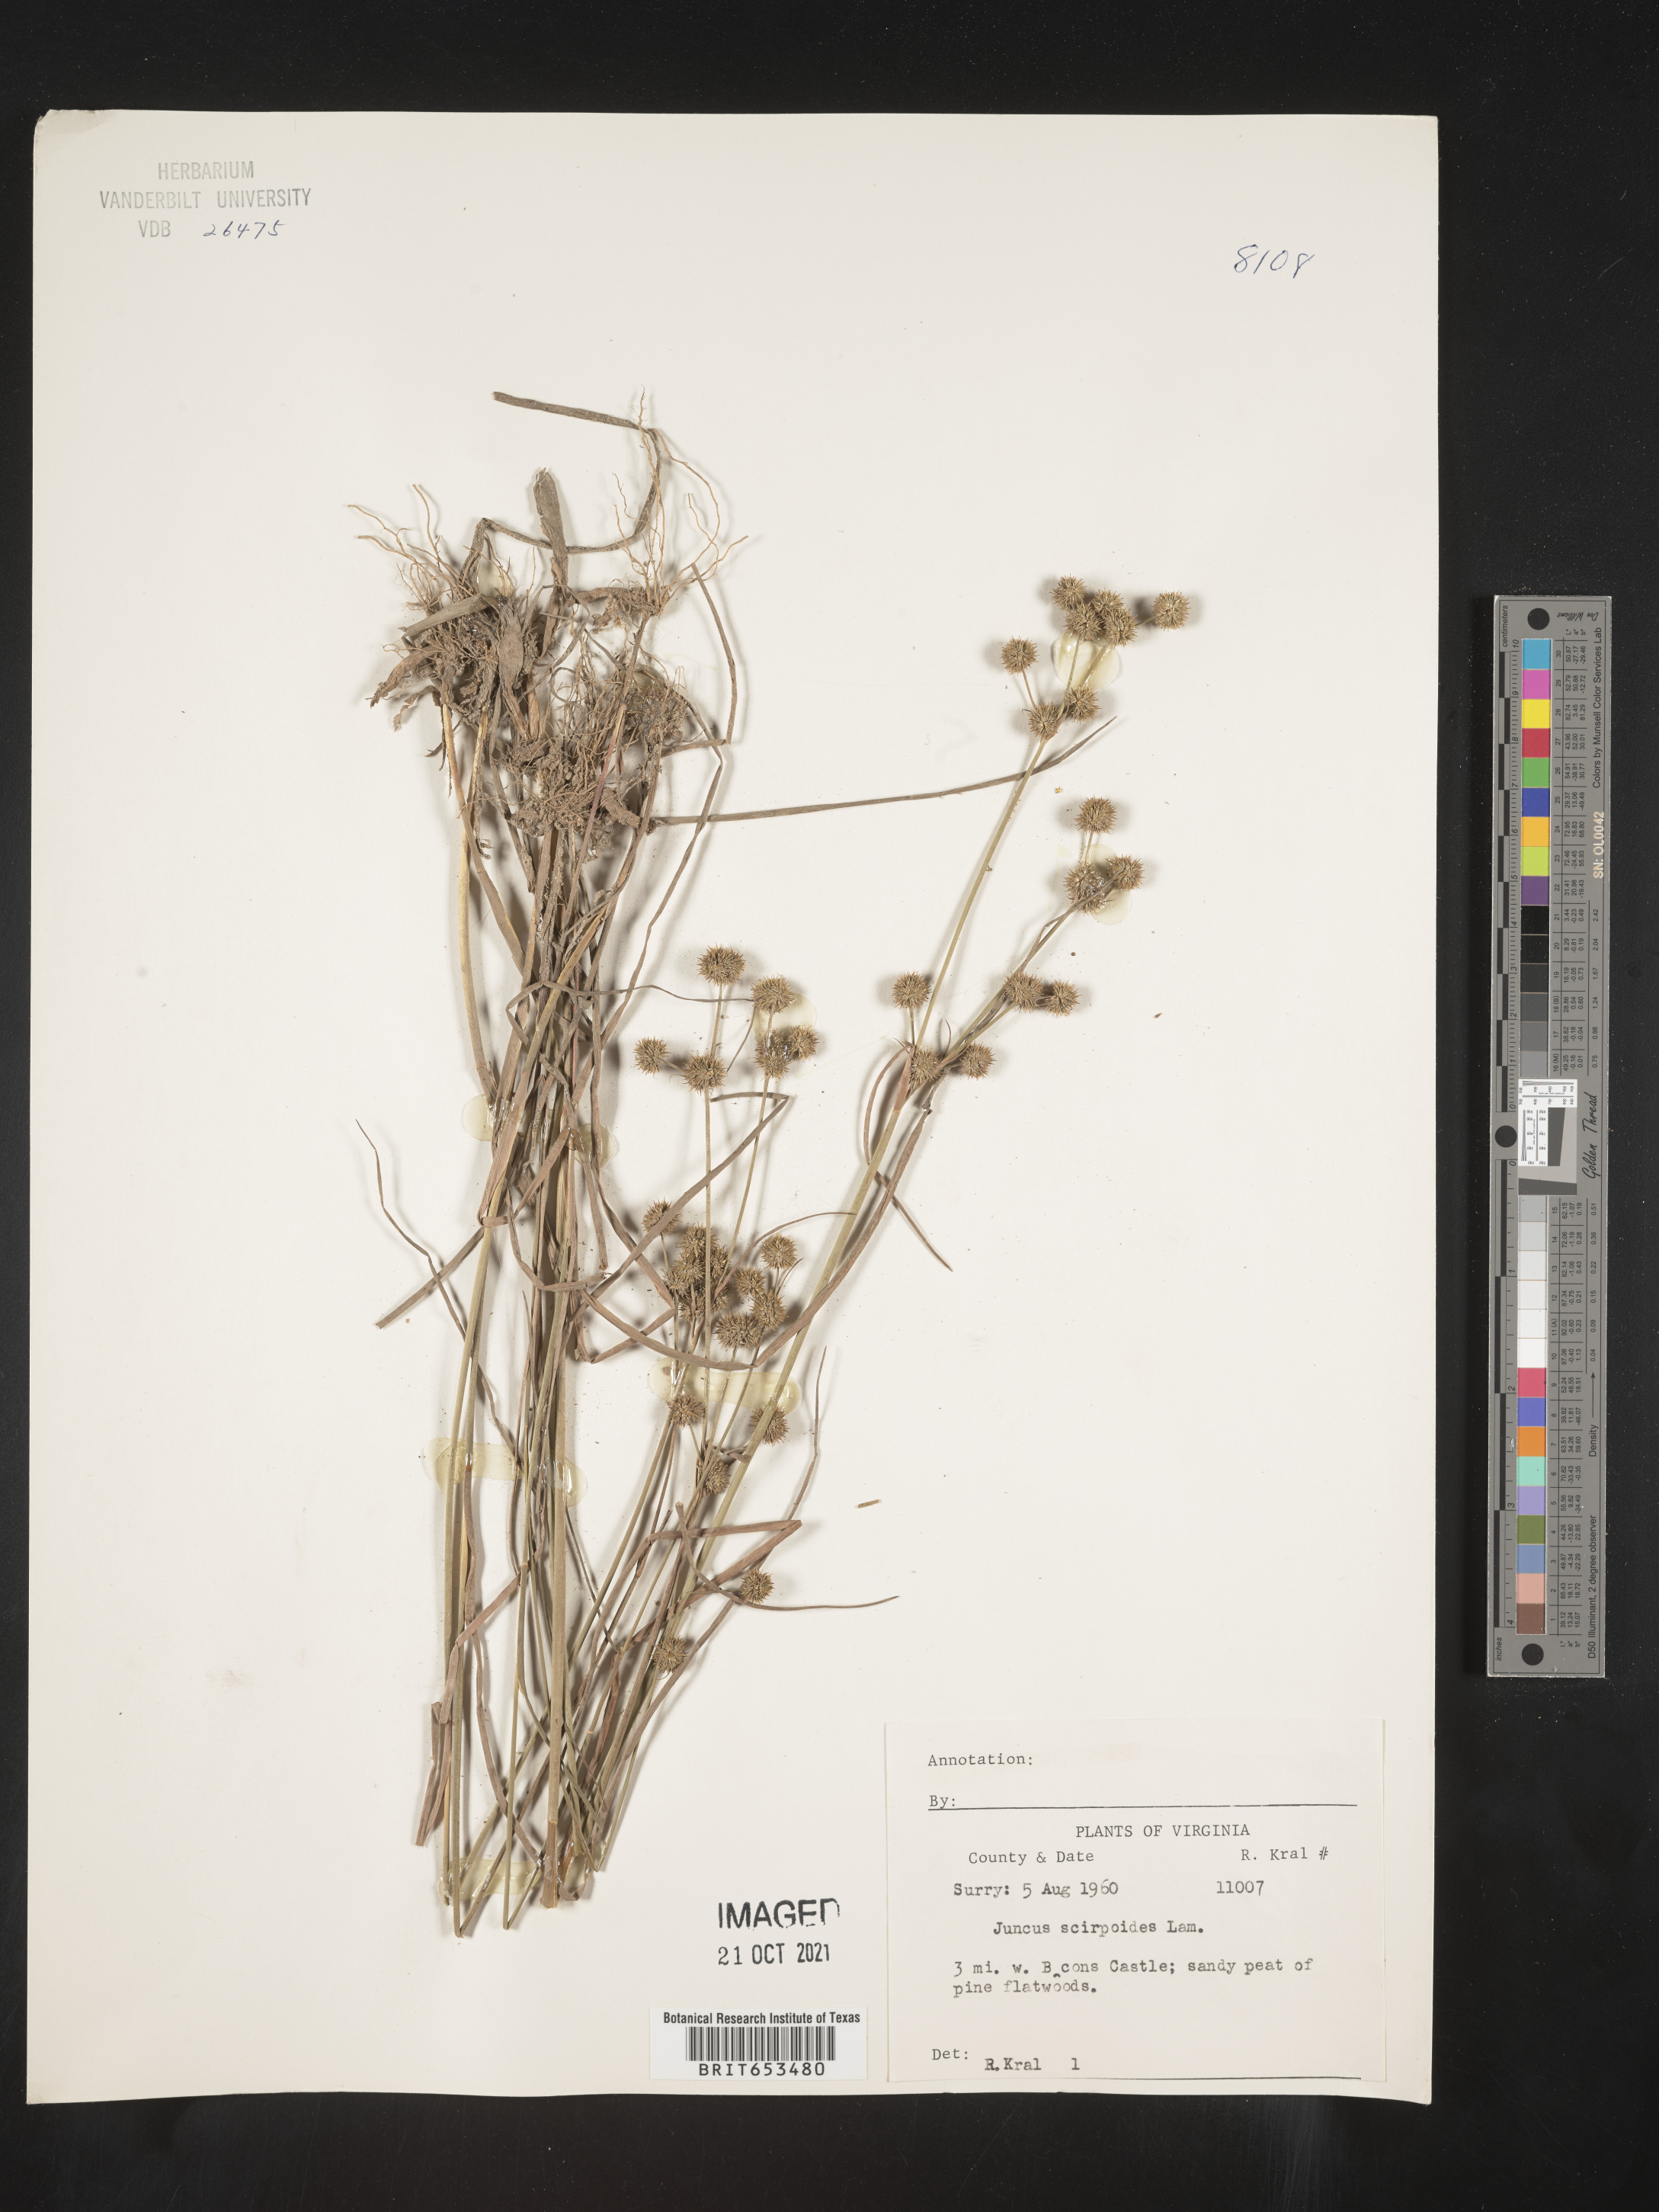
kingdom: Plantae
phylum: Tracheophyta
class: Liliopsida
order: Poales
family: Juncaceae
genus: Juncus
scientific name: Juncus scirpoides
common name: Needlepod rush
